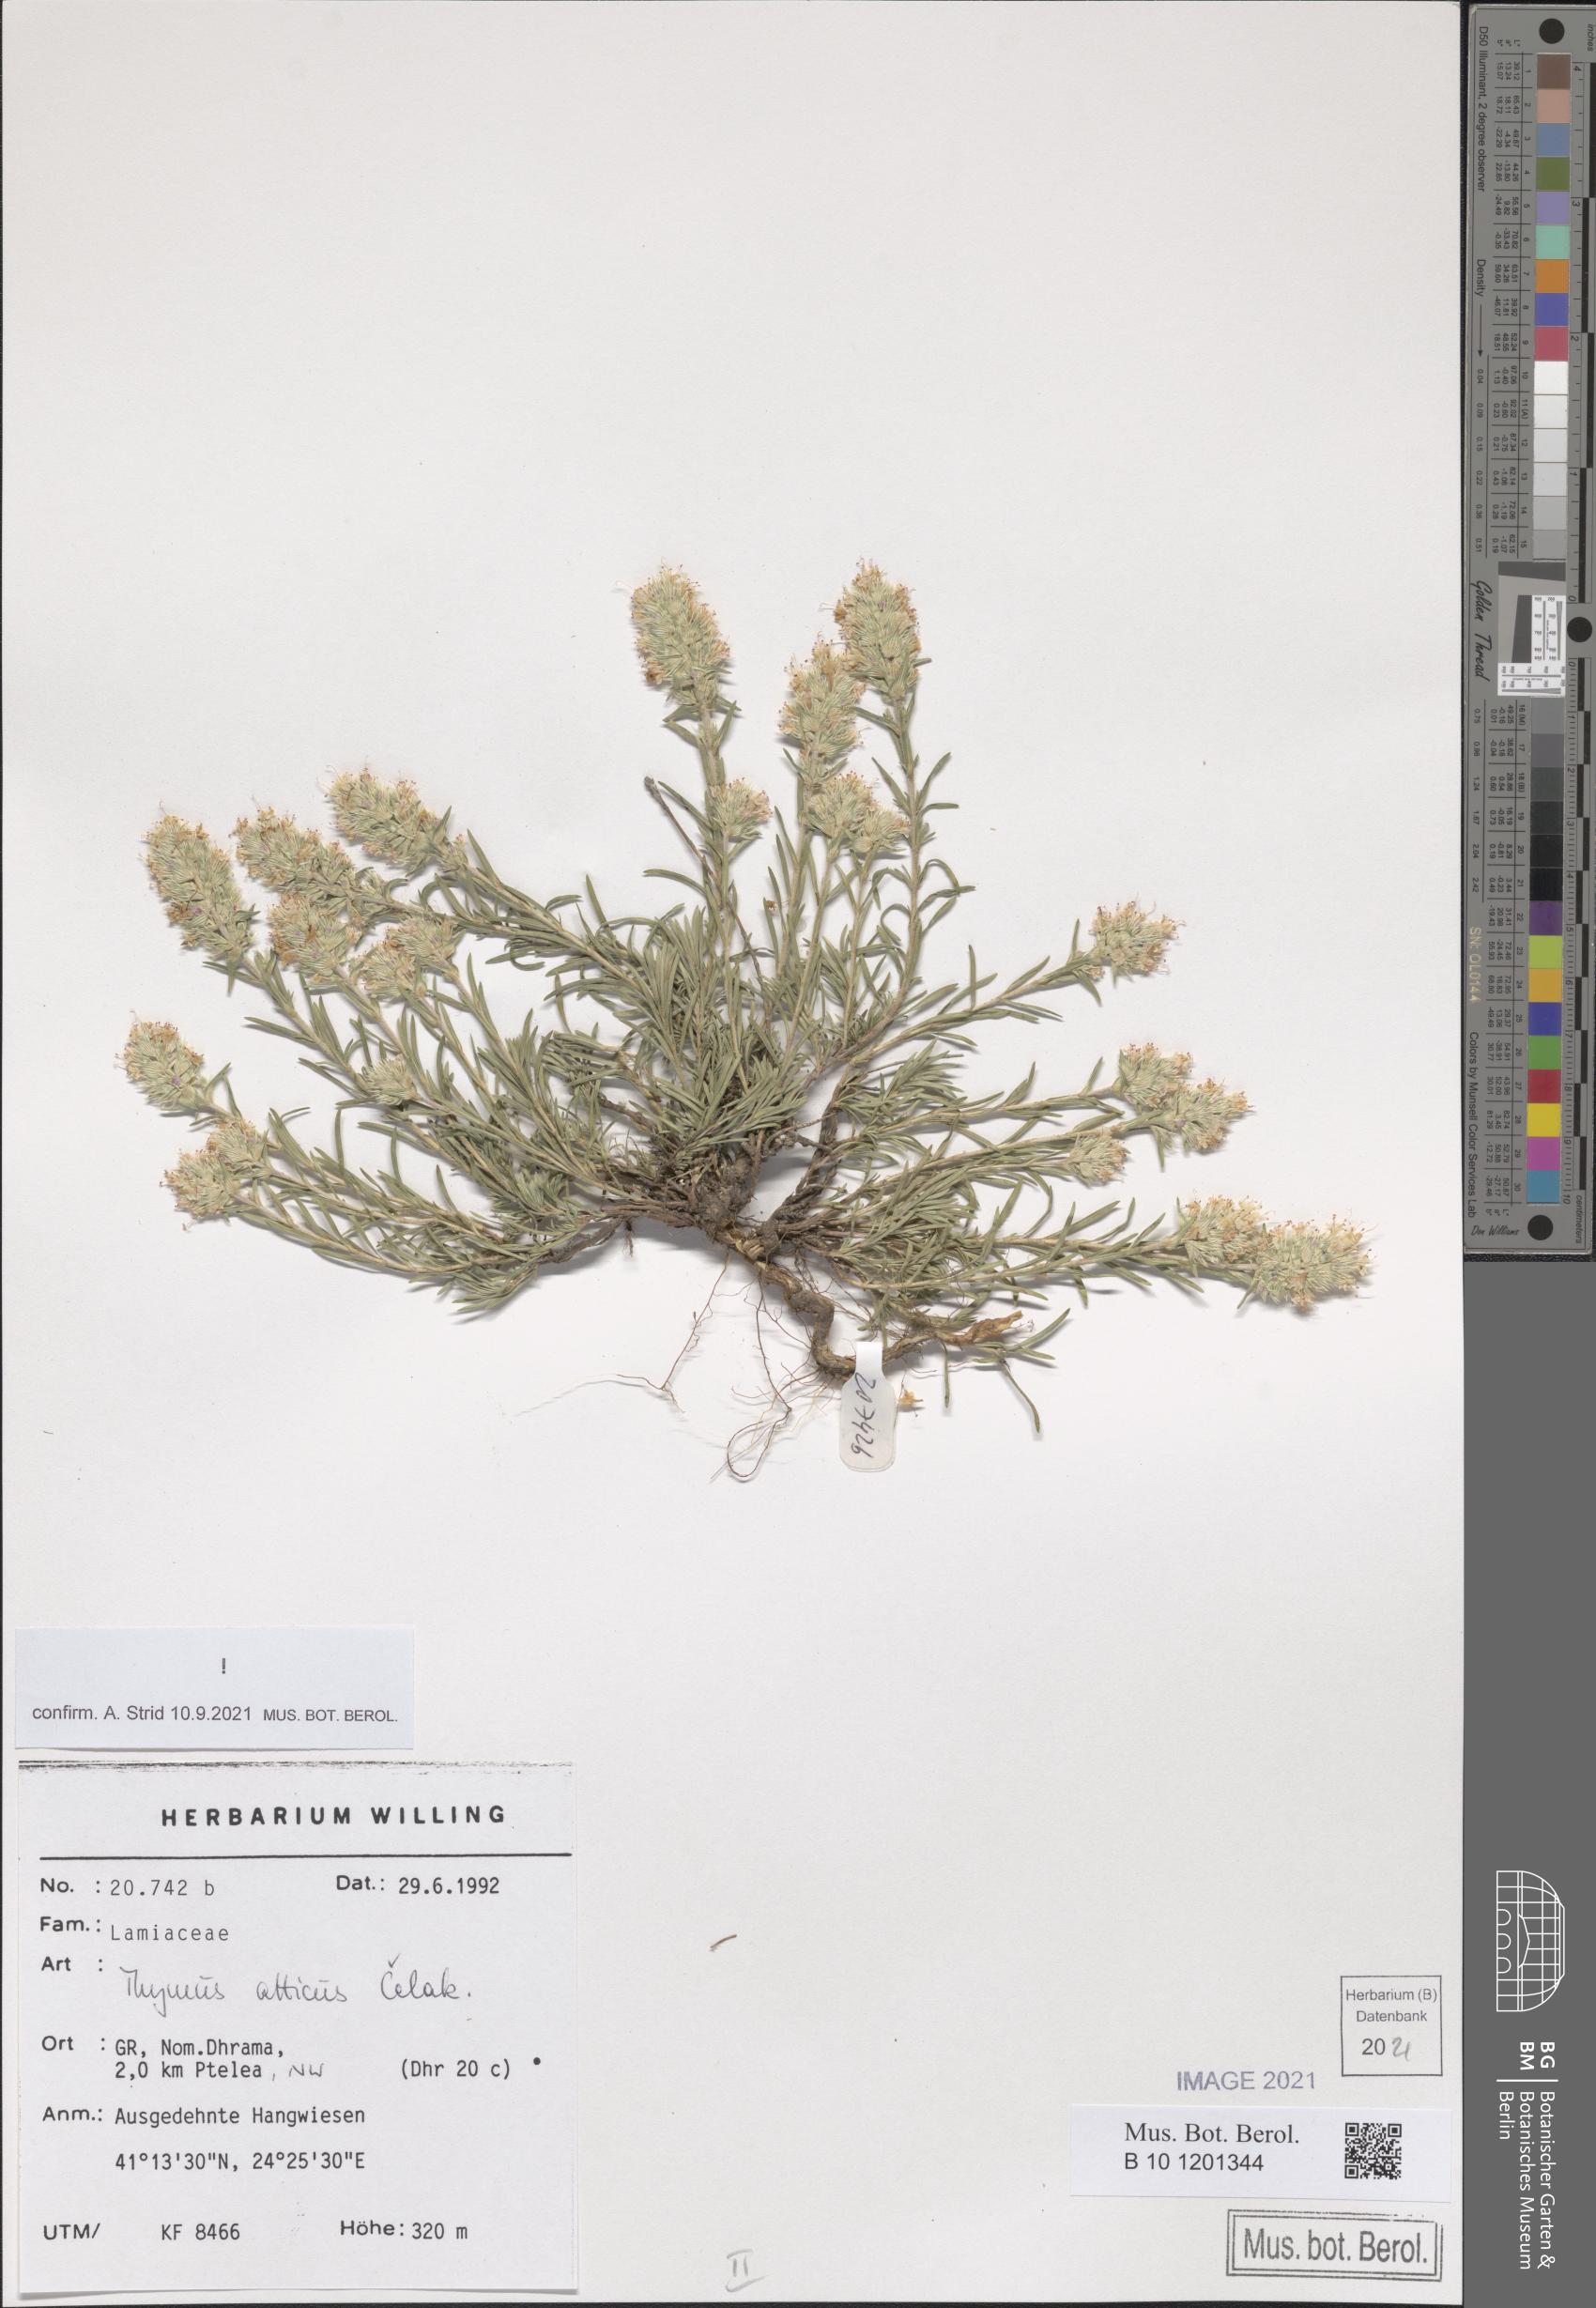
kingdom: Plantae
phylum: Tracheophyta
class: Magnoliopsida
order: Lamiales
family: Lamiaceae
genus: Thymus
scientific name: Thymus atticus
